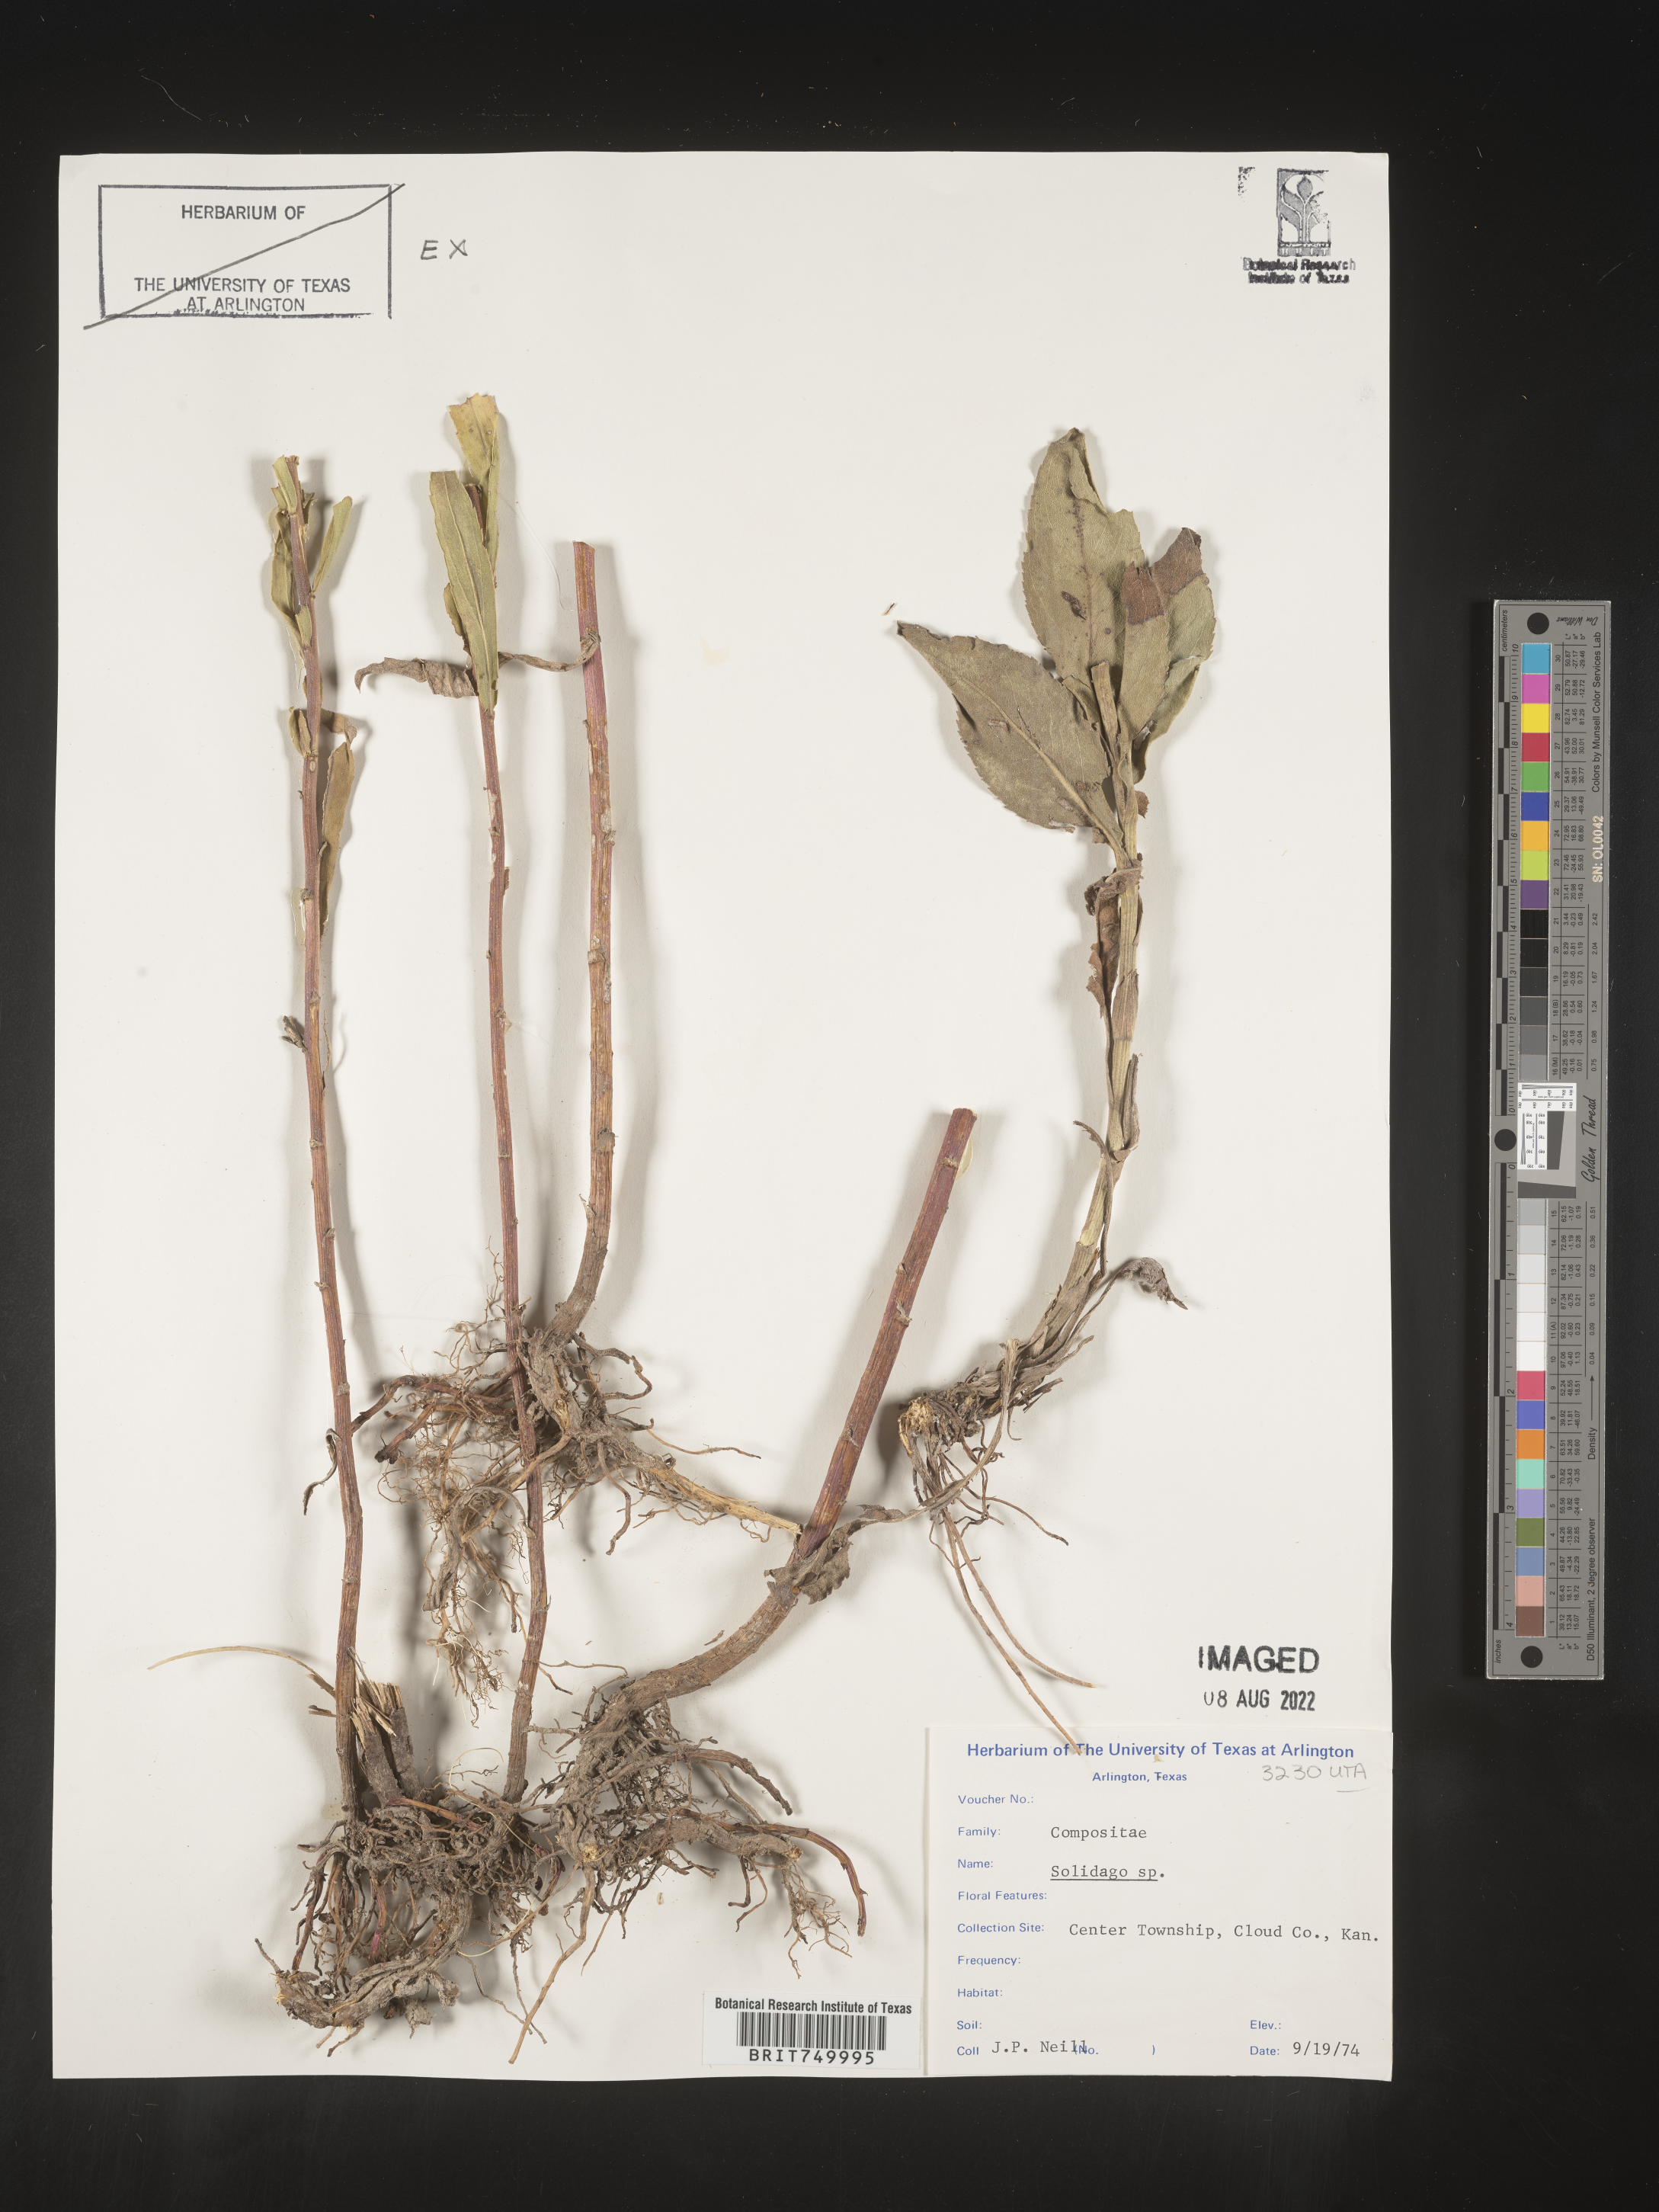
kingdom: Plantae
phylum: Tracheophyta
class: Magnoliopsida
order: Asterales
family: Asteraceae
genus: Solidago
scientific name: Solidago
